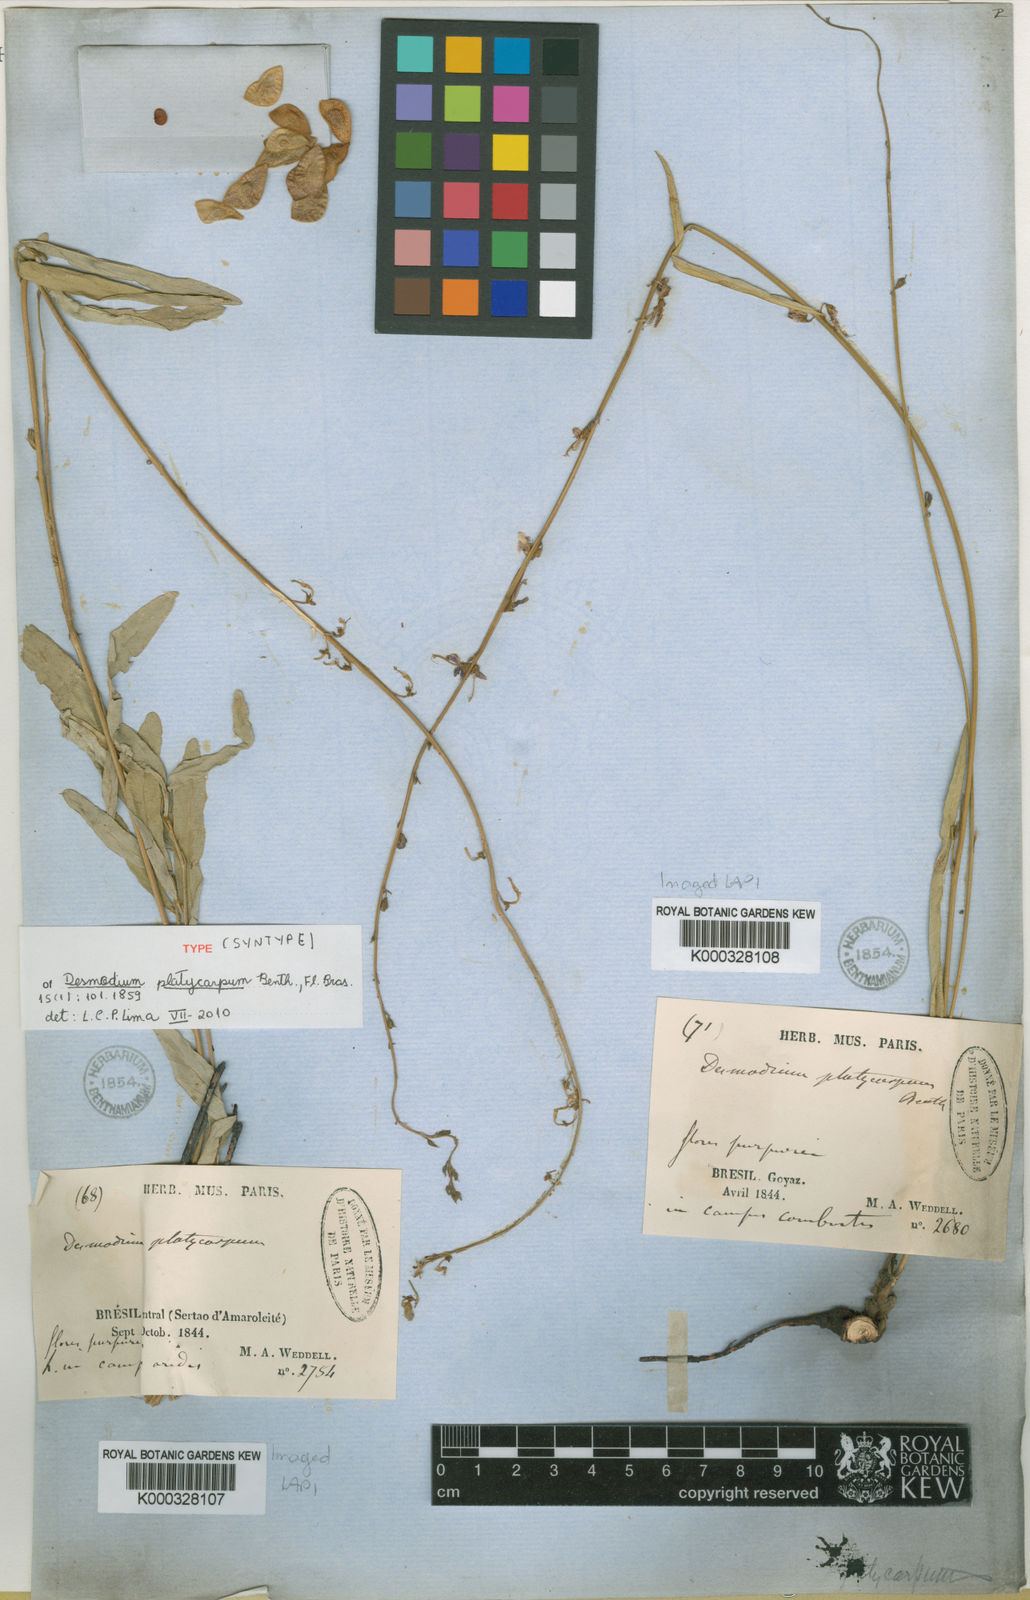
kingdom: Plantae
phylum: Tracheophyta
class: Magnoliopsida
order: Fabales
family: Fabaceae
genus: Desmodium
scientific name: Desmodium platycarpum
